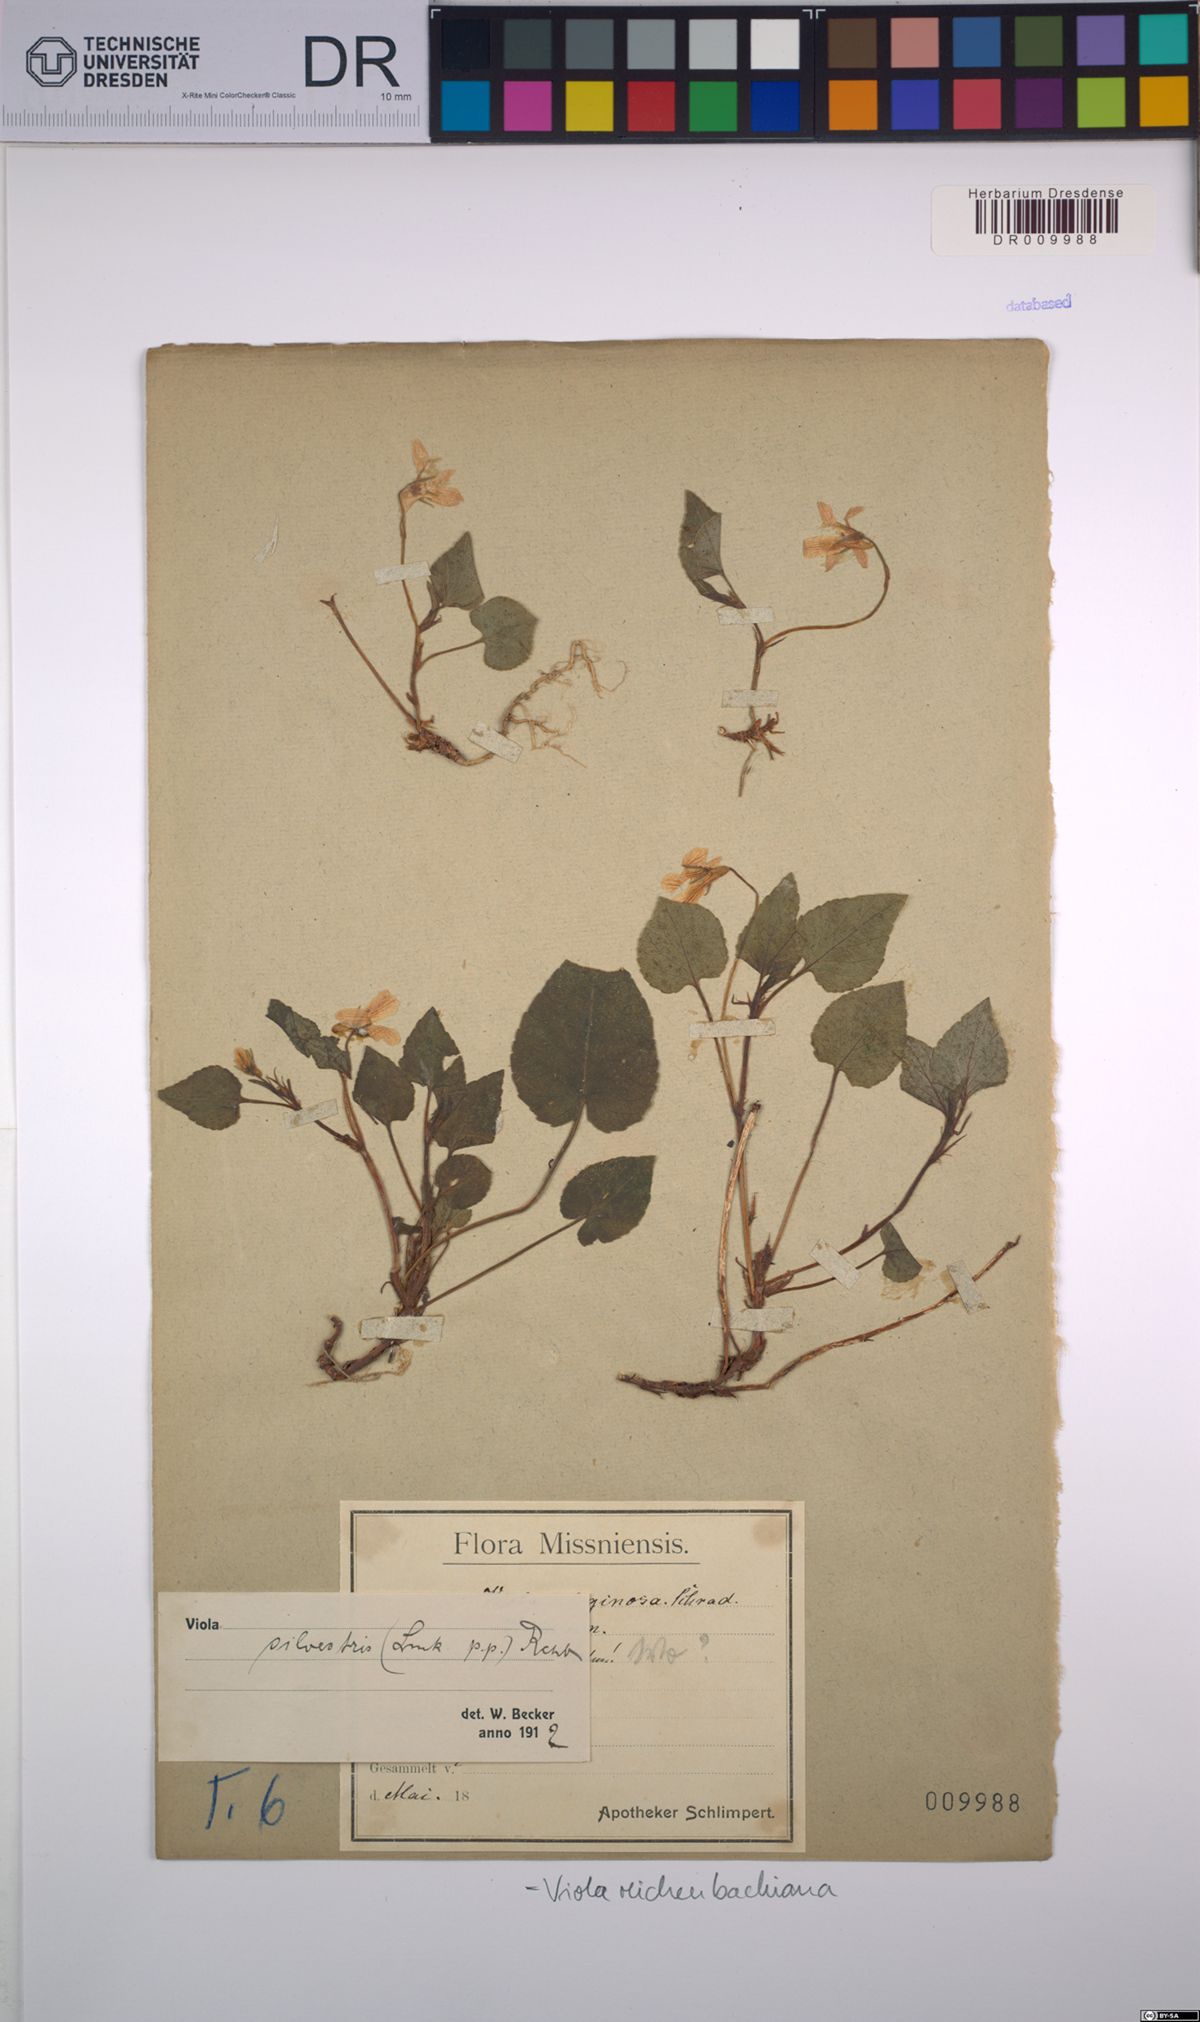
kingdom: Plantae
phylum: Tracheophyta
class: Magnoliopsida
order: Malpighiales
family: Violaceae
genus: Viola
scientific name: Viola reichenbachiana
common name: Early dog-violet
